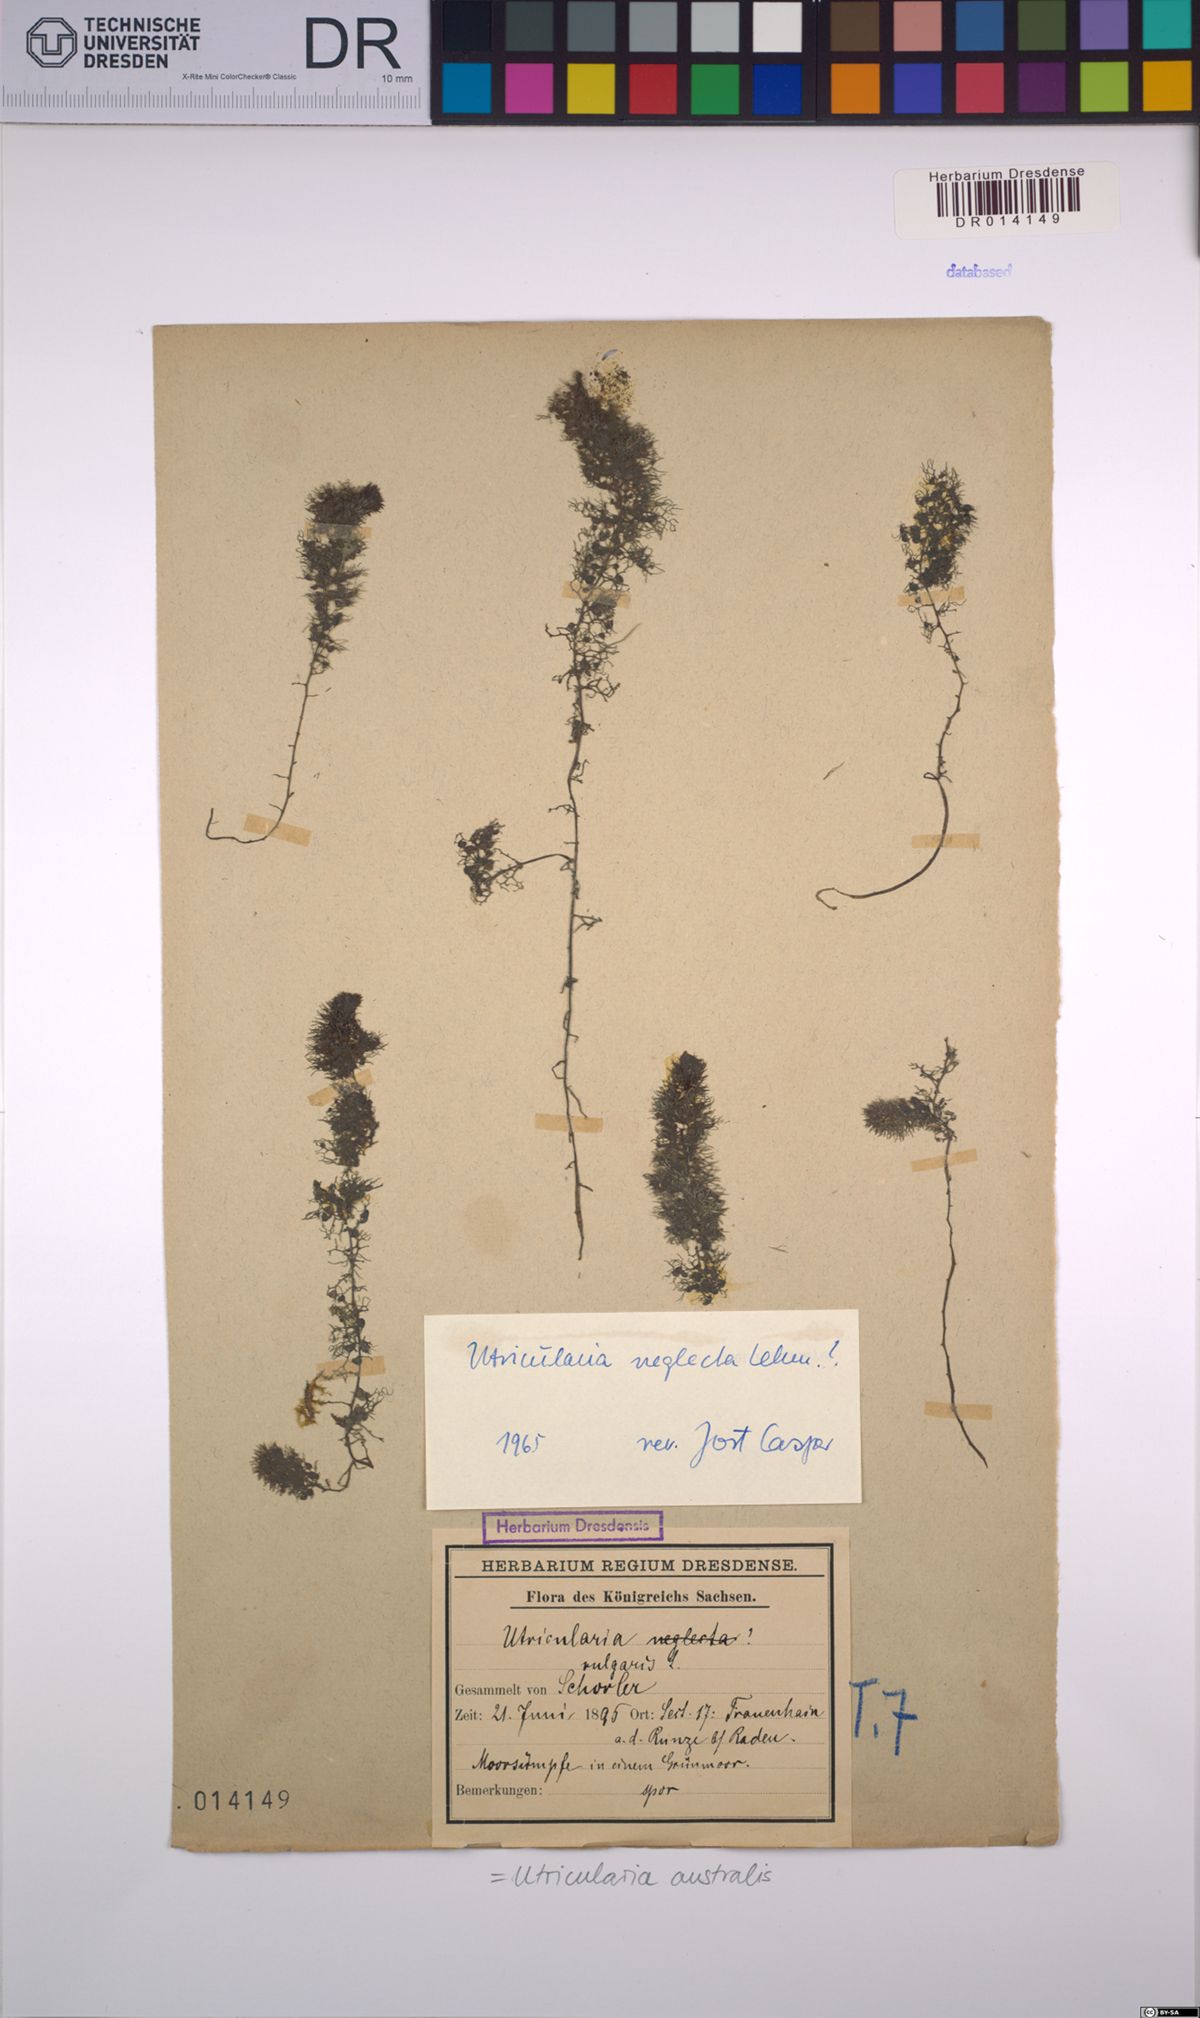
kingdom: Plantae
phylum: Tracheophyta
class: Magnoliopsida
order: Lamiales
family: Lentibulariaceae
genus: Utricularia
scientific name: Utricularia australis
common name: Bladderwort
